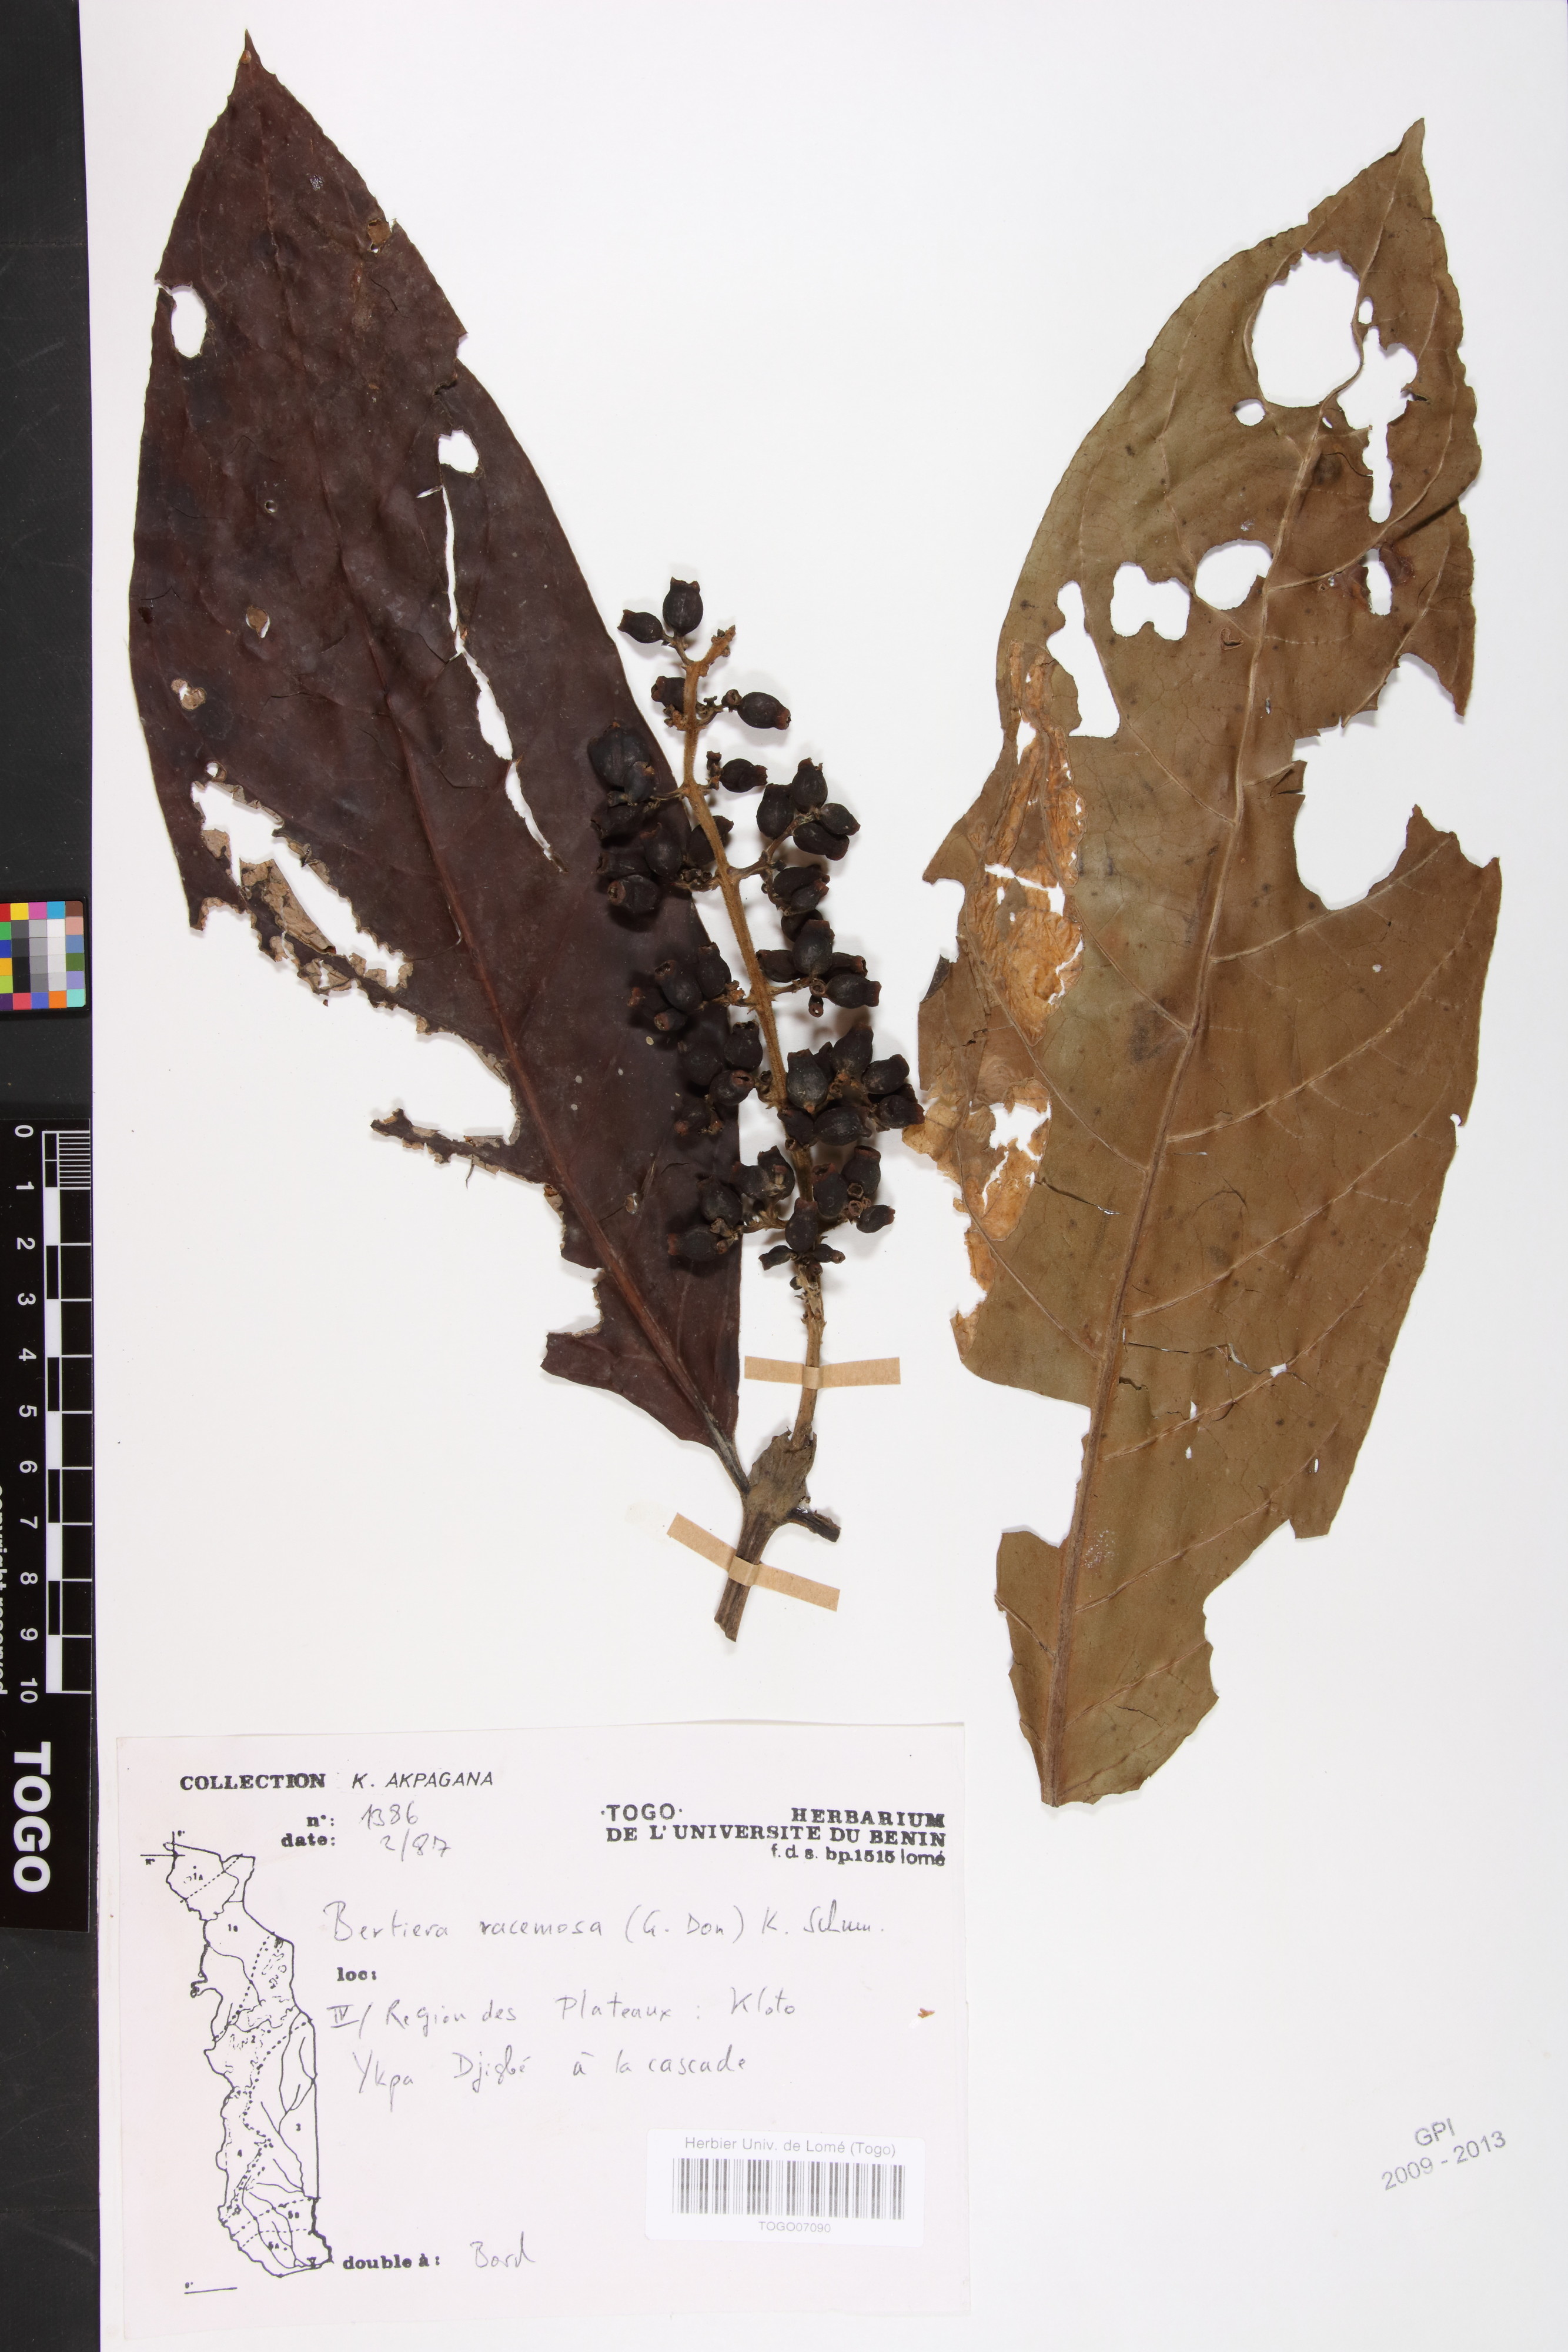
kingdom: Plantae
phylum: Tracheophyta
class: Magnoliopsida
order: Gentianales
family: Rubiaceae
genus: Bertiera
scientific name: Bertiera racemosa
